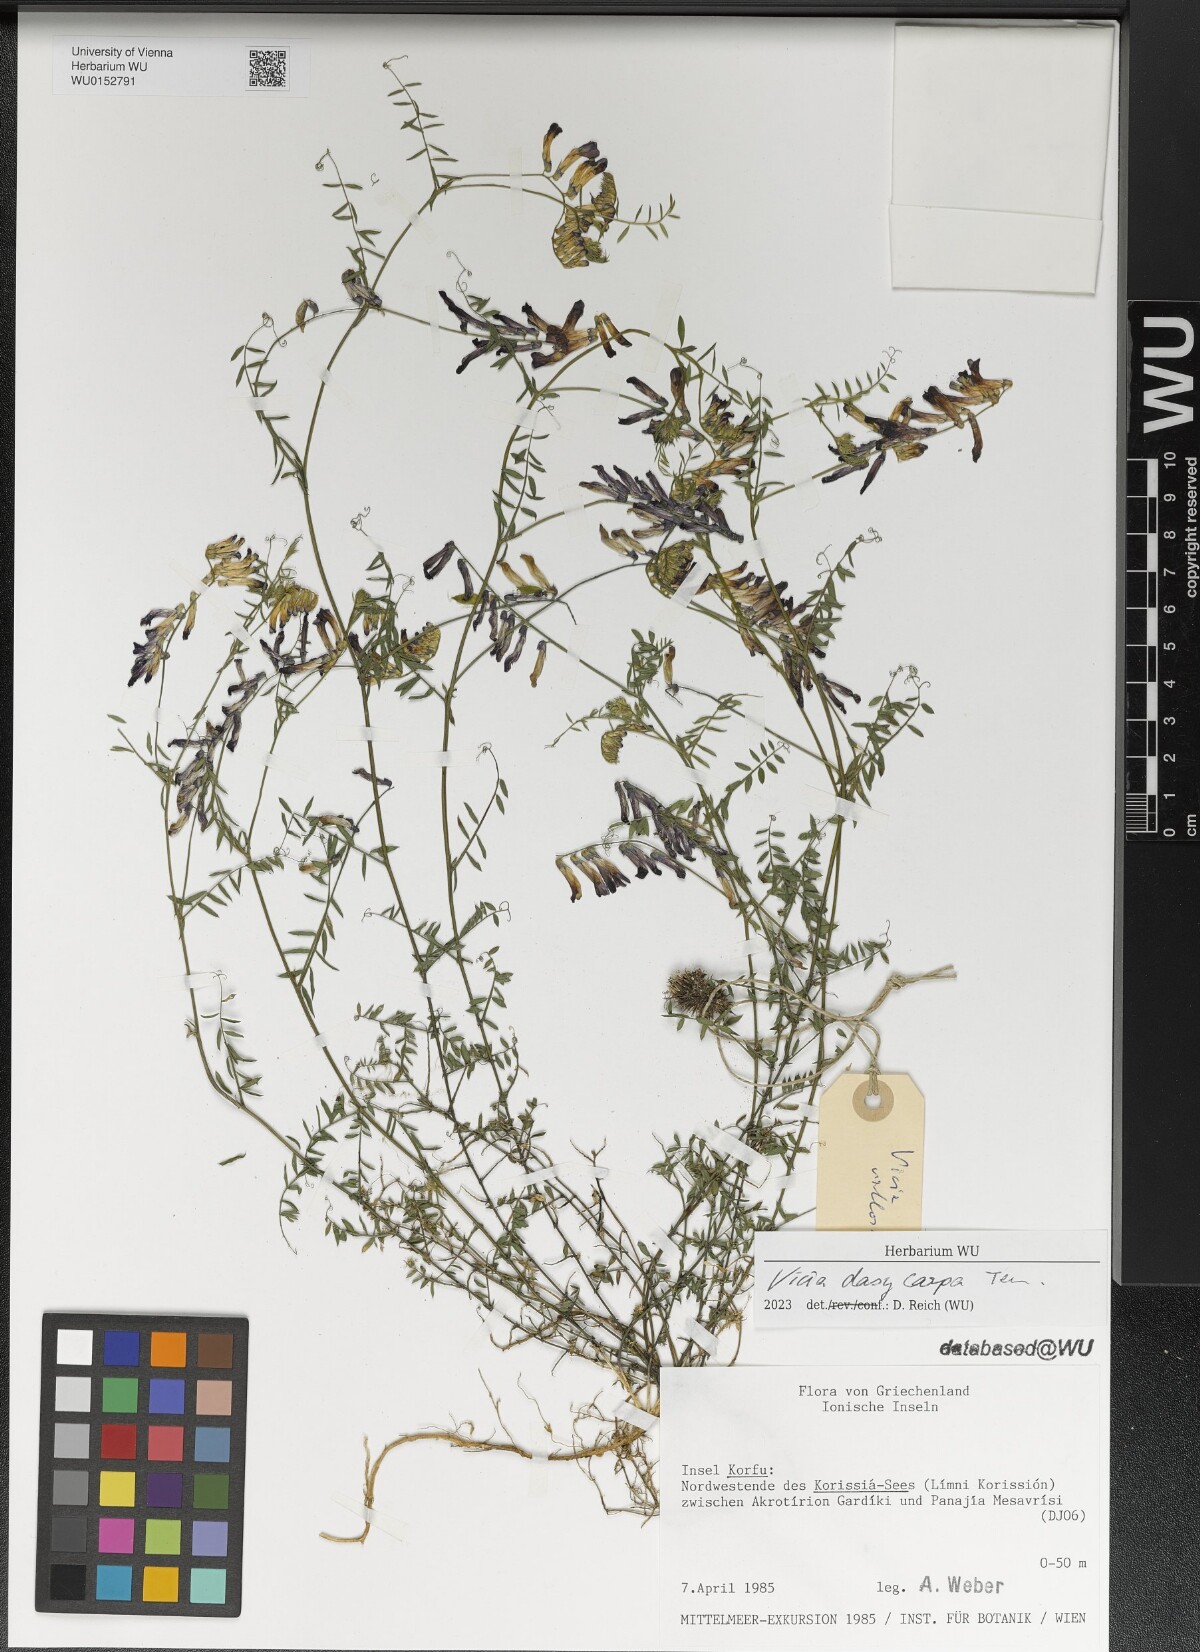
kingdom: Plantae
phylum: Tracheophyta
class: Magnoliopsida
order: Fabales
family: Fabaceae
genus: Vicia
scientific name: Vicia villosa
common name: Fodder vetch
